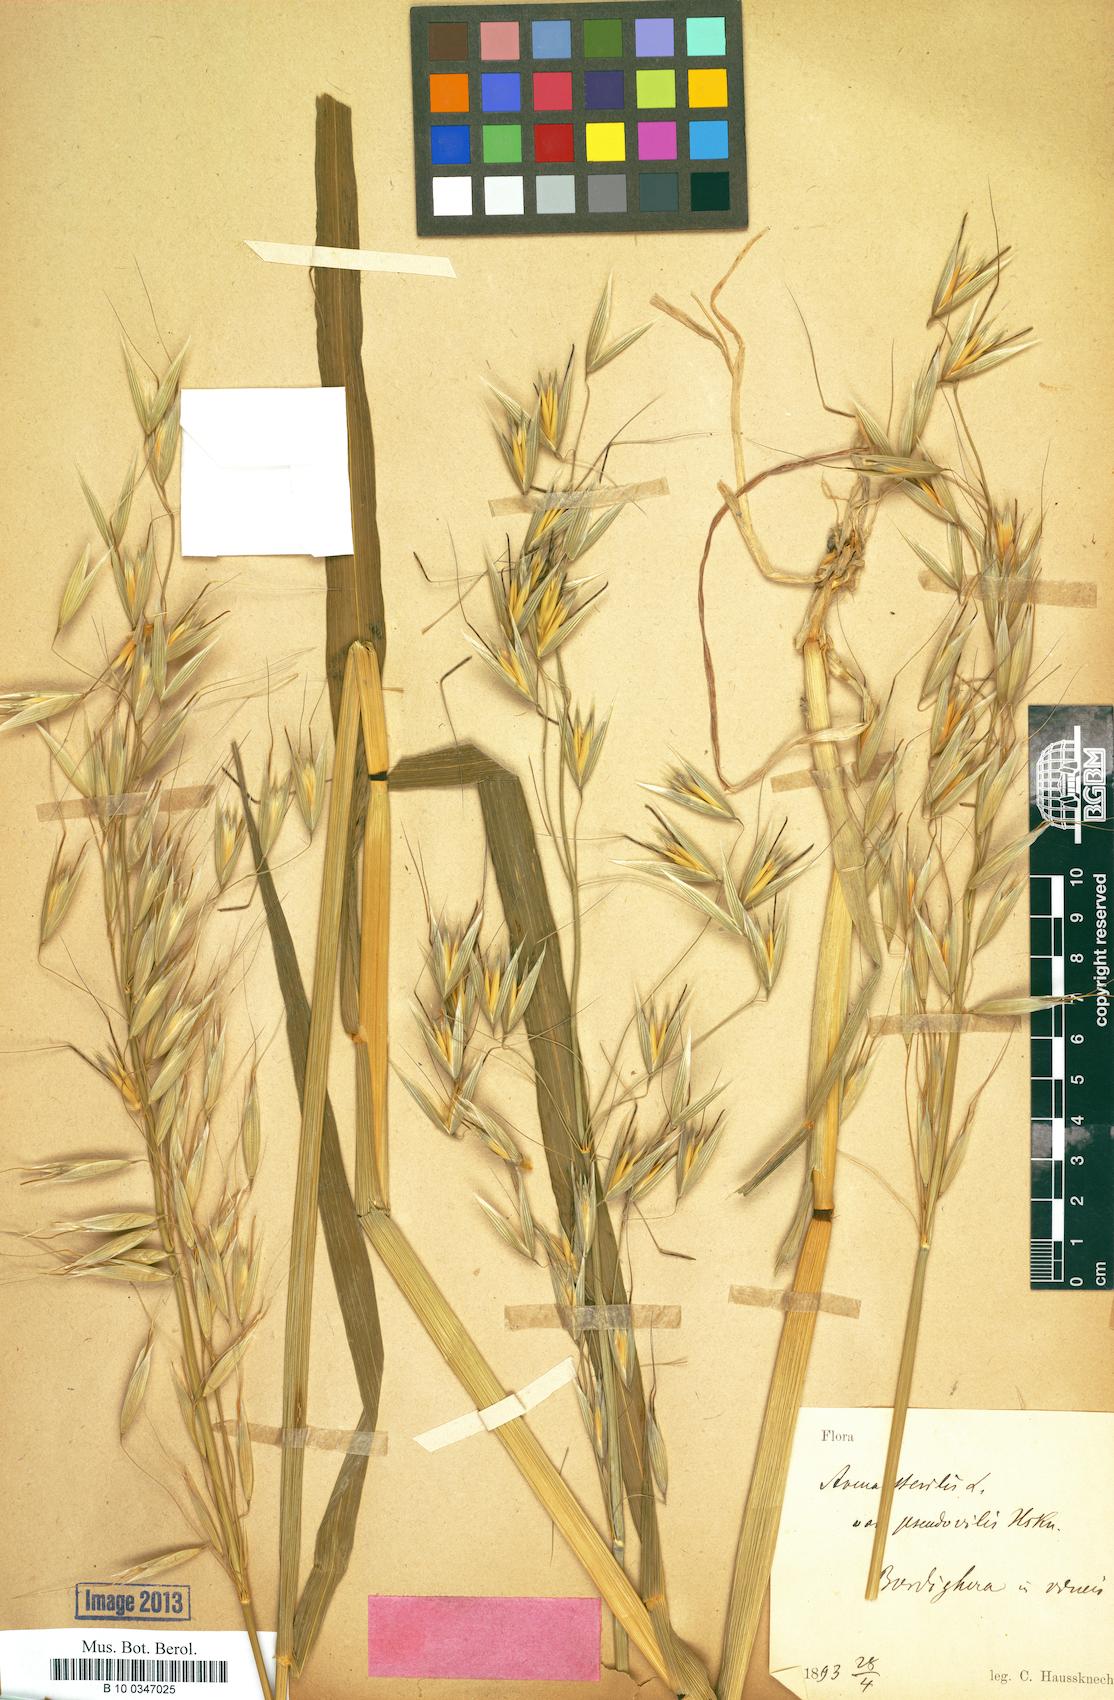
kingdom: Plantae
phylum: Tracheophyta
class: Liliopsida
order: Poales
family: Poaceae
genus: Avena
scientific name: Avena sterilis
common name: Animated oat
